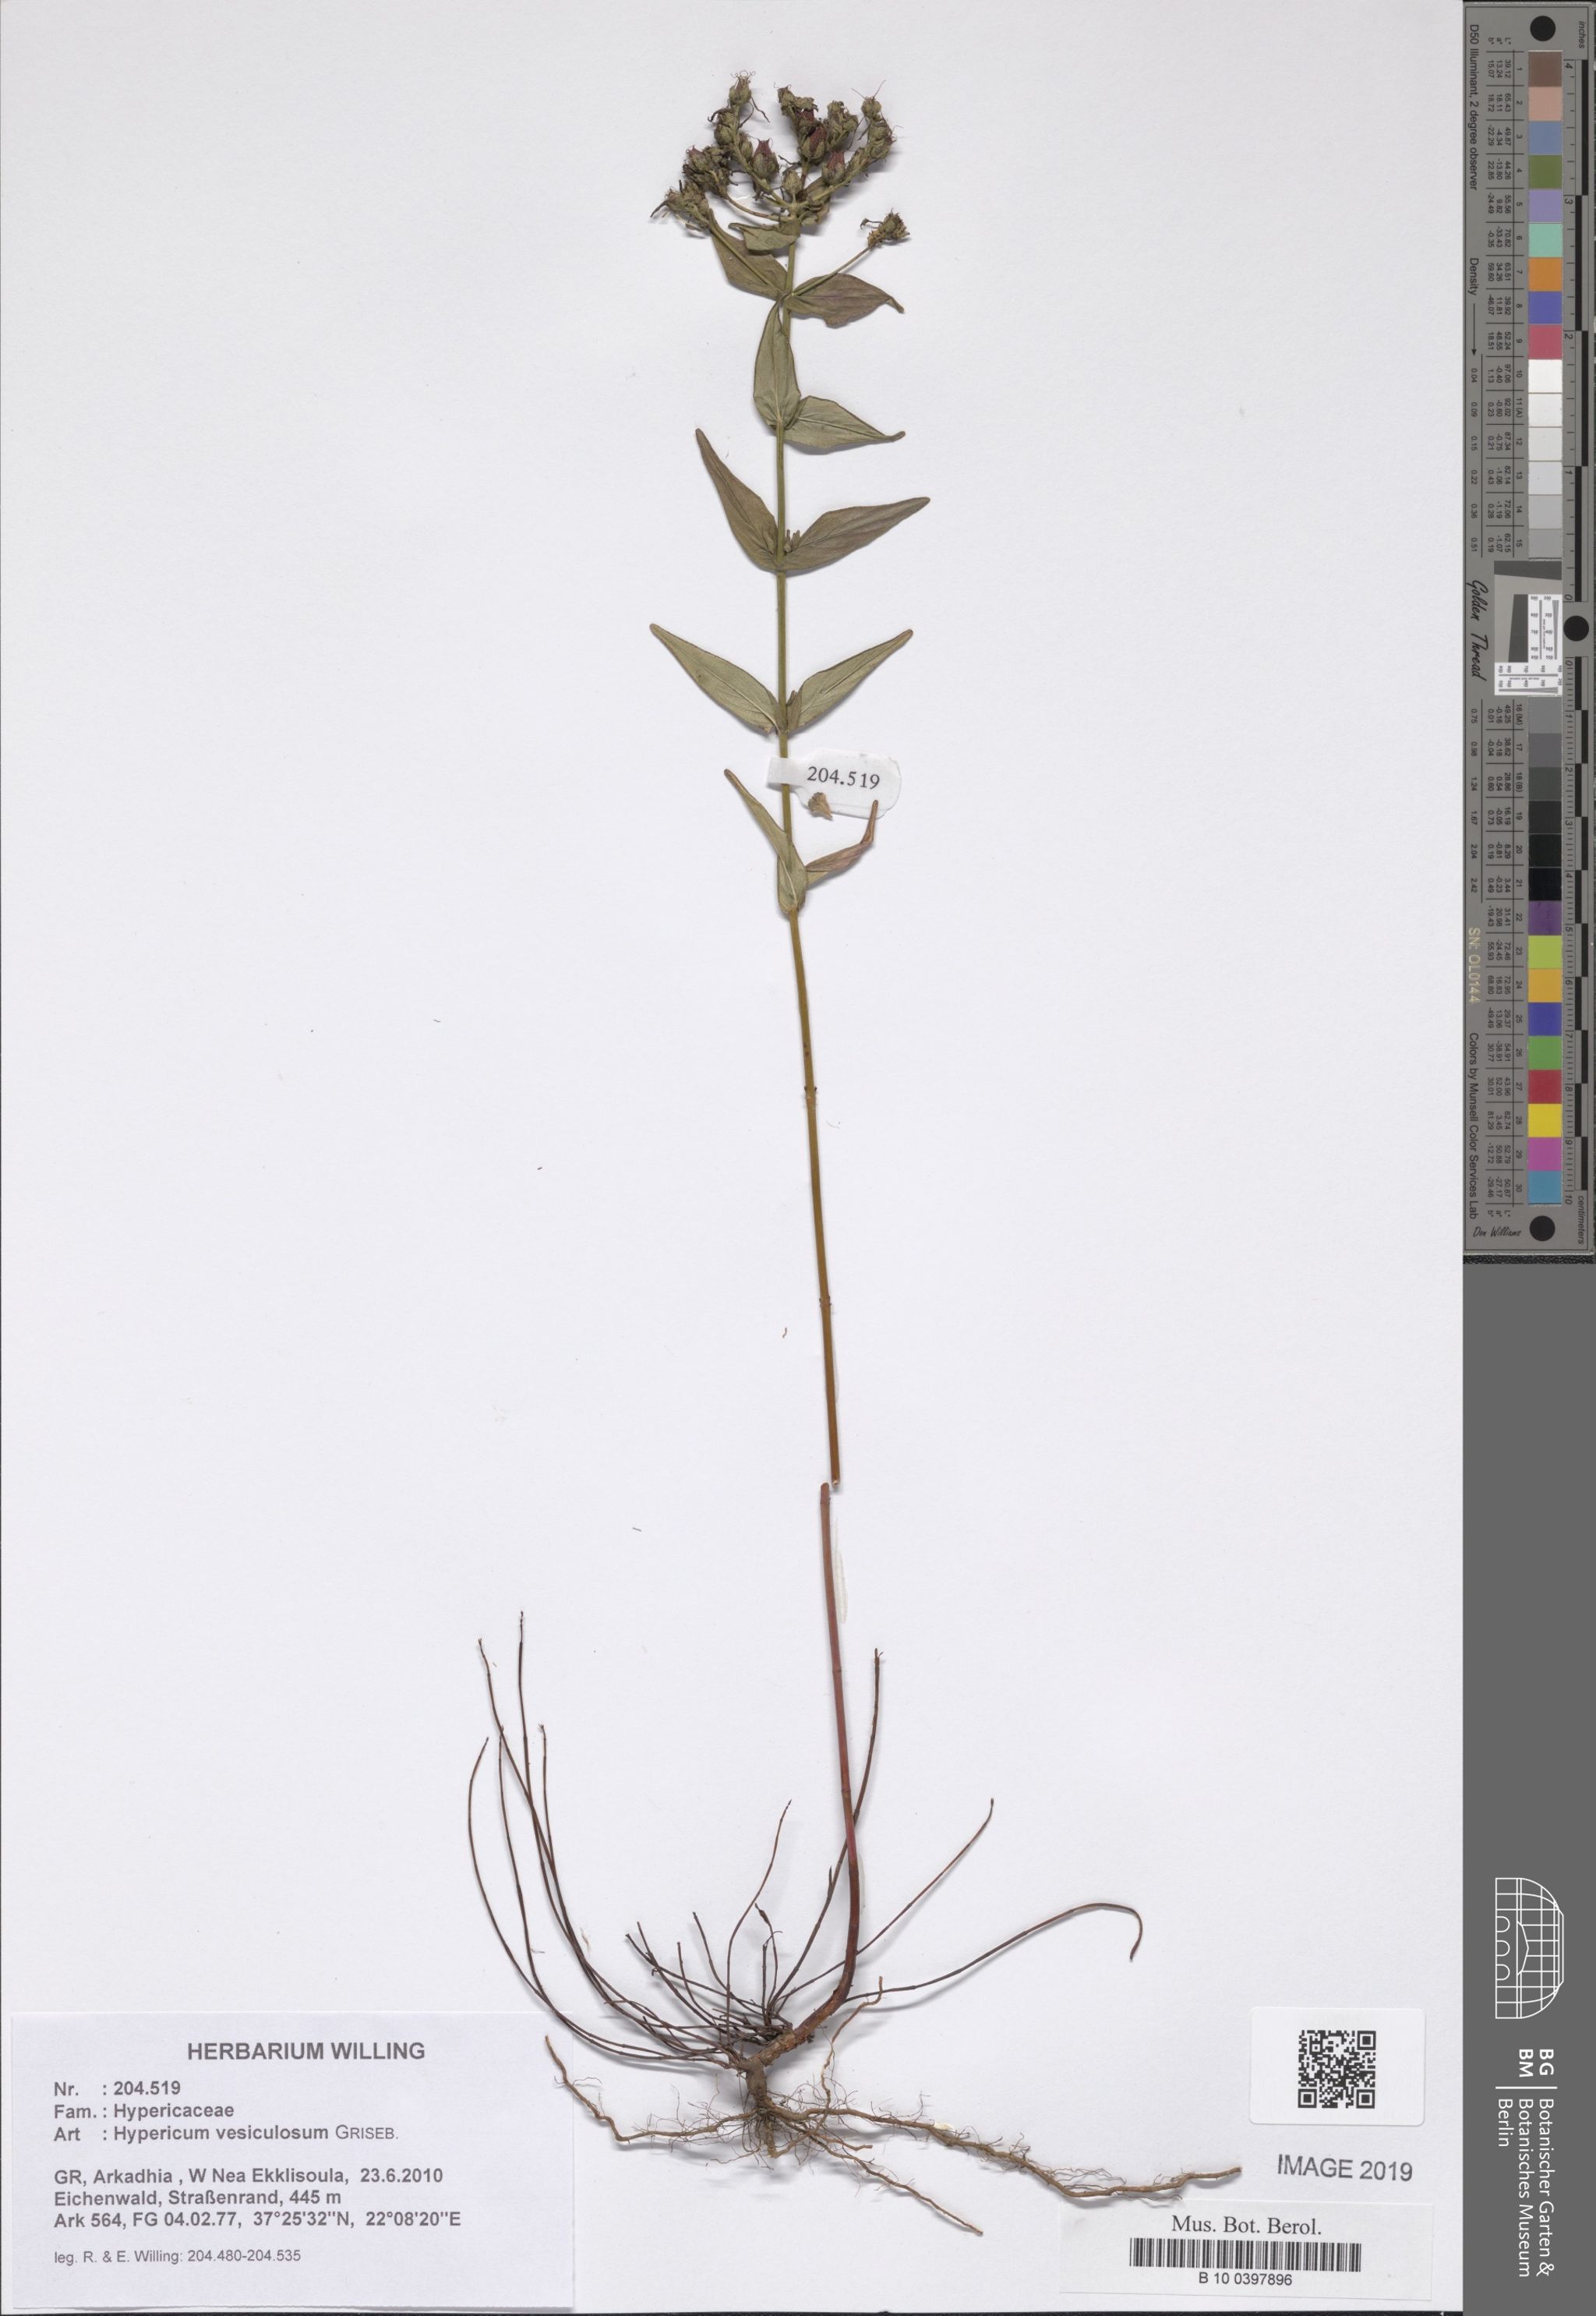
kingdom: Plantae
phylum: Tracheophyta
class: Magnoliopsida
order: Malpighiales
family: Hypericaceae
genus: Hypericum
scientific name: Hypericum vesiculosum
